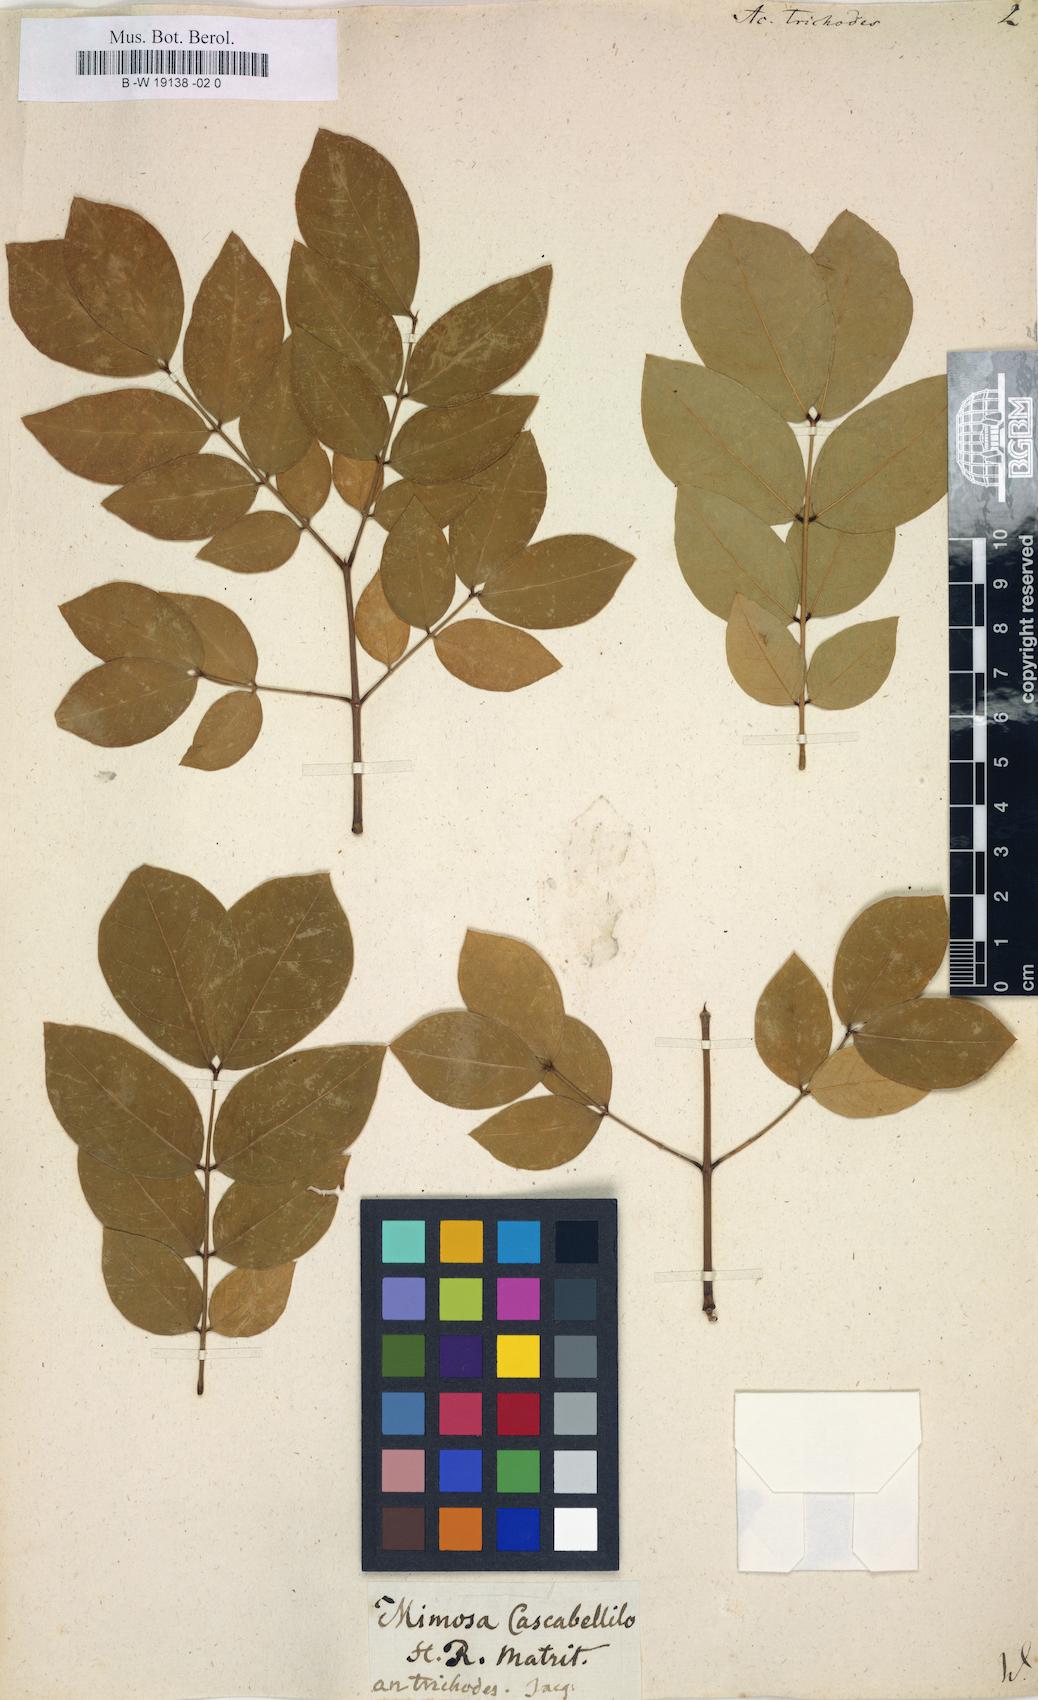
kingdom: Plantae
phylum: Tracheophyta
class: Magnoliopsida
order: Fabales
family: Fabaceae
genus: Leucaena
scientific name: Leucaena trichodes
